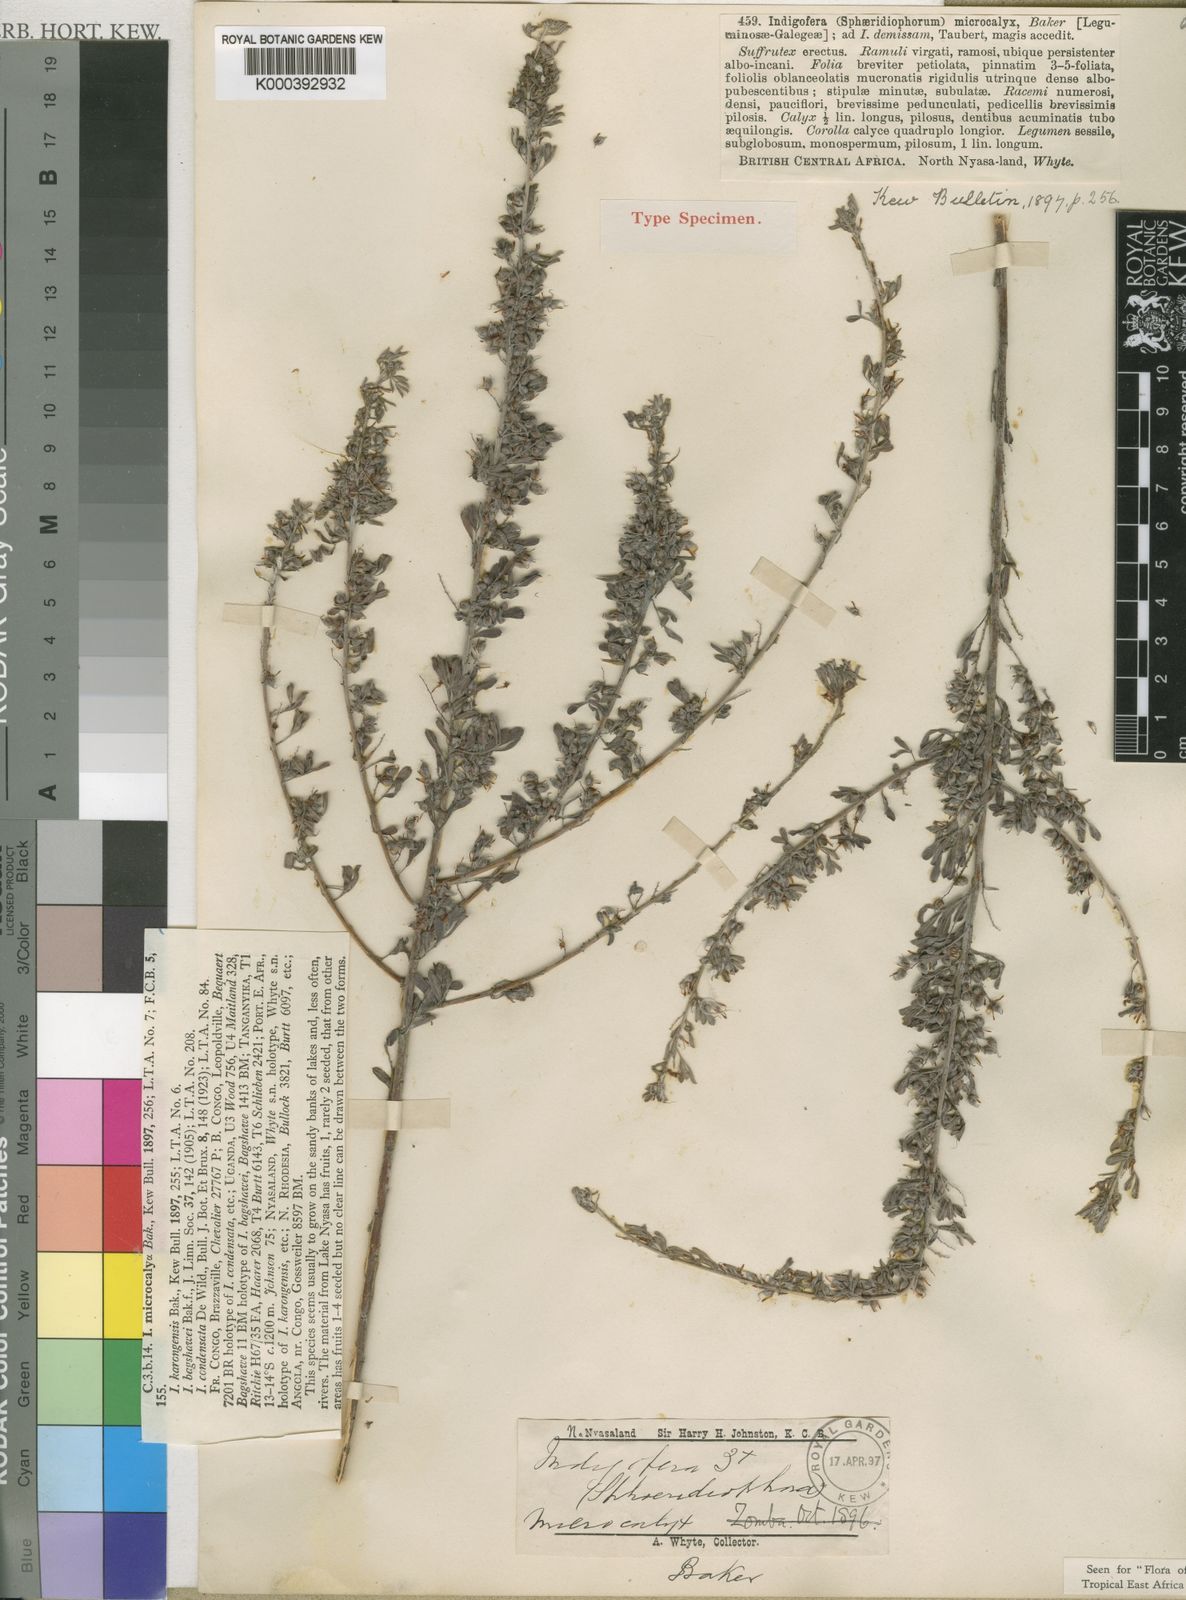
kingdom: Plantae
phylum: Tracheophyta
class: Magnoliopsida
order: Fabales
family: Fabaceae
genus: Indigofera
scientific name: Indigofera microcalyx
